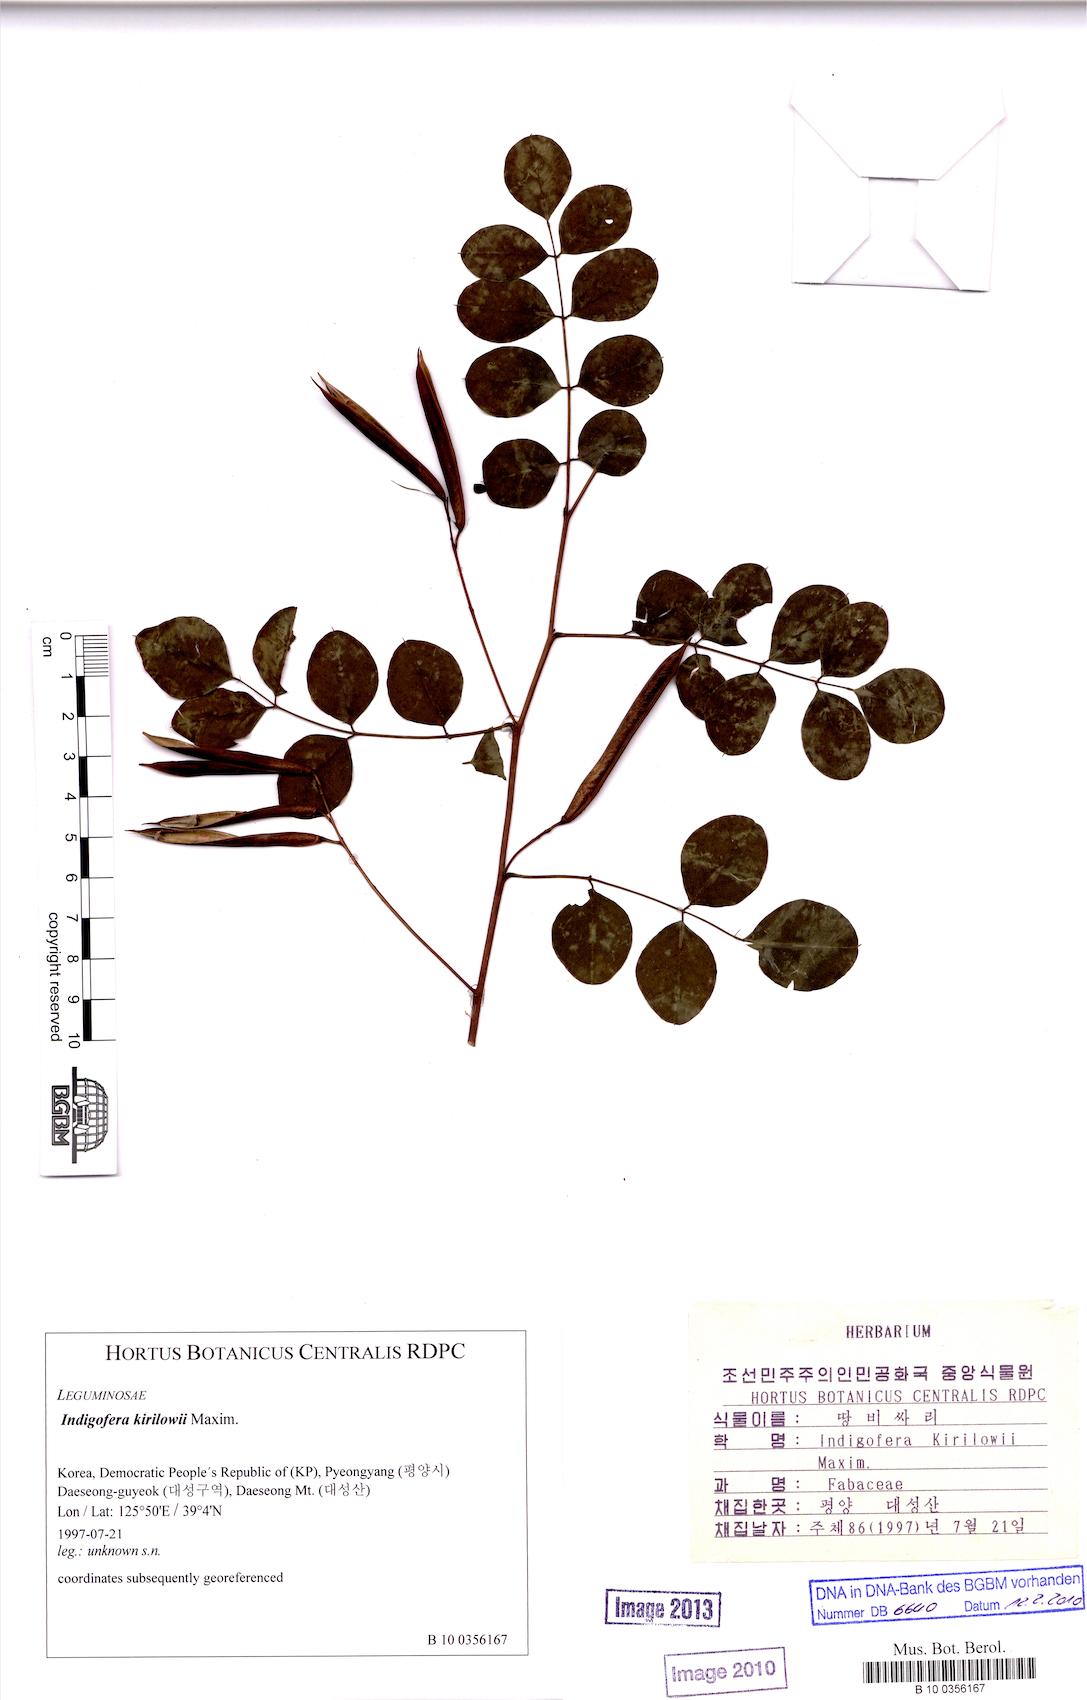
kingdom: Plantae
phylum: Tracheophyta
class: Magnoliopsida
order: Fabales
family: Fabaceae
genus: Indigofera
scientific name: Indigofera kirilowii
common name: Kirilow's indigo
